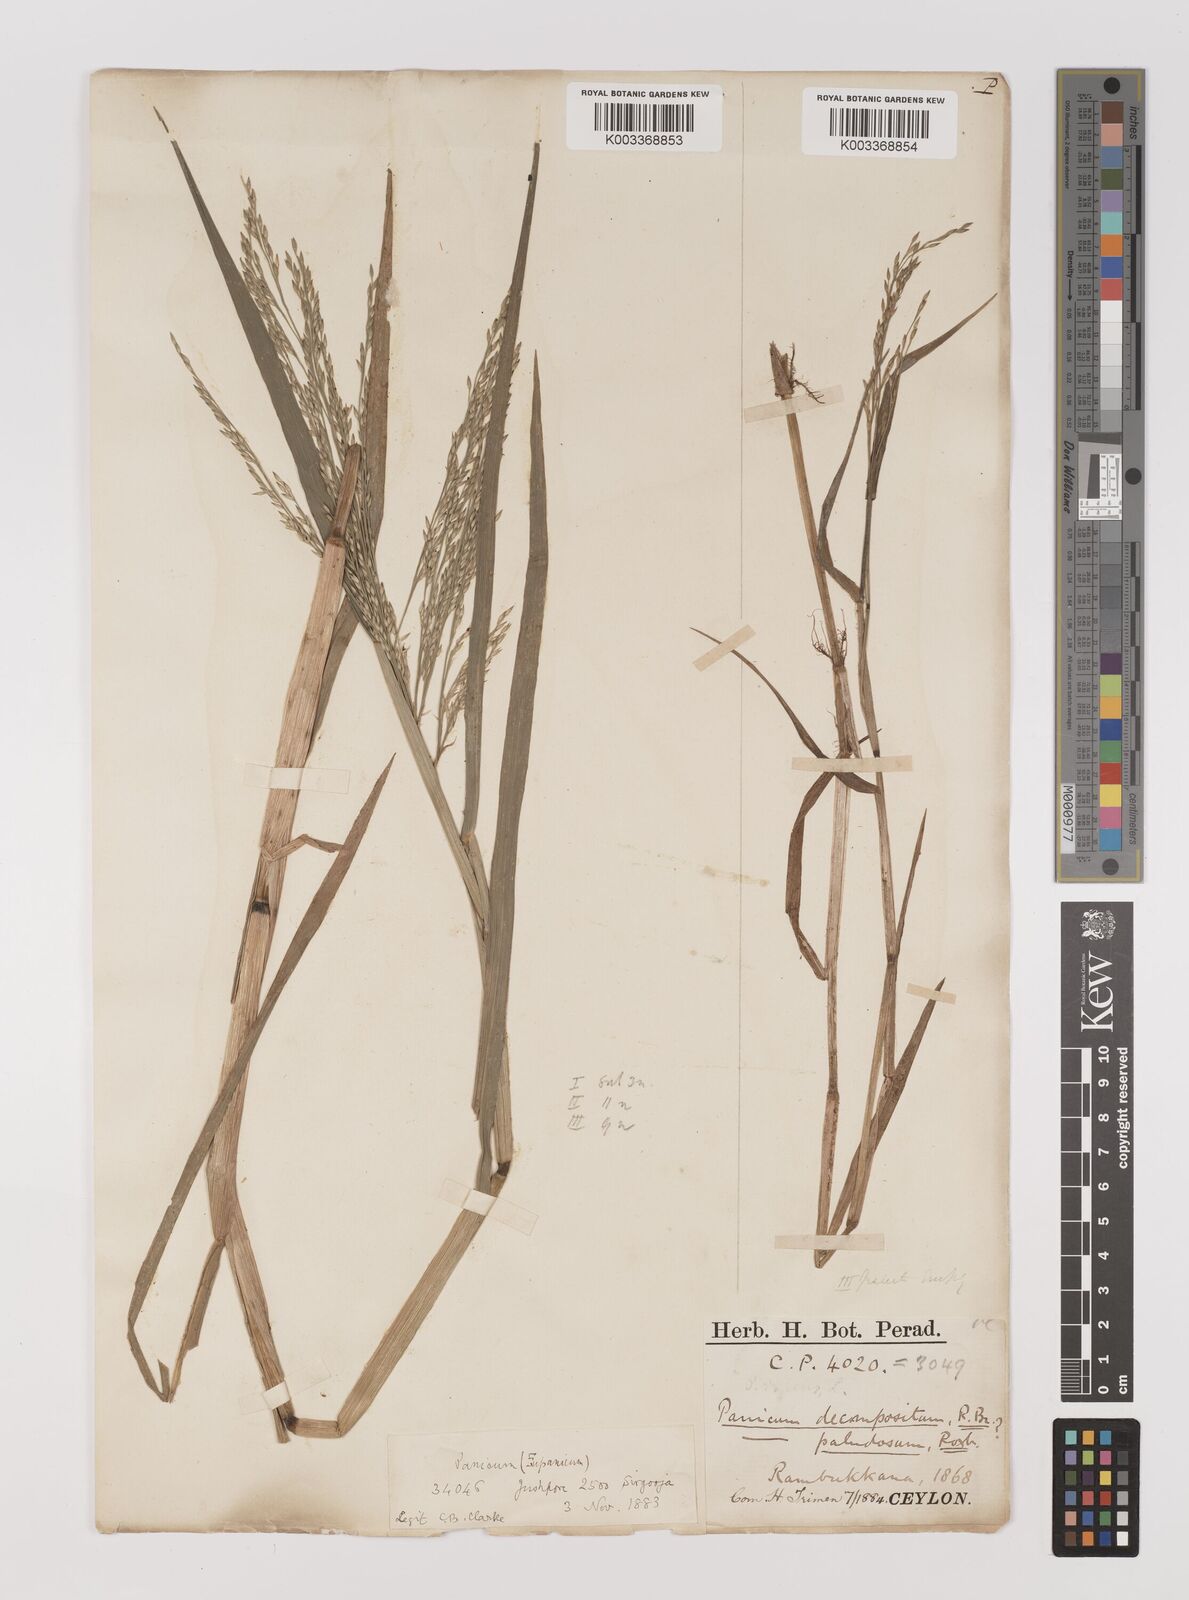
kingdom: Plantae
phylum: Tracheophyta
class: Liliopsida
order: Poales
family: Poaceae
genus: Louisiella
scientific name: Louisiella paludosa
